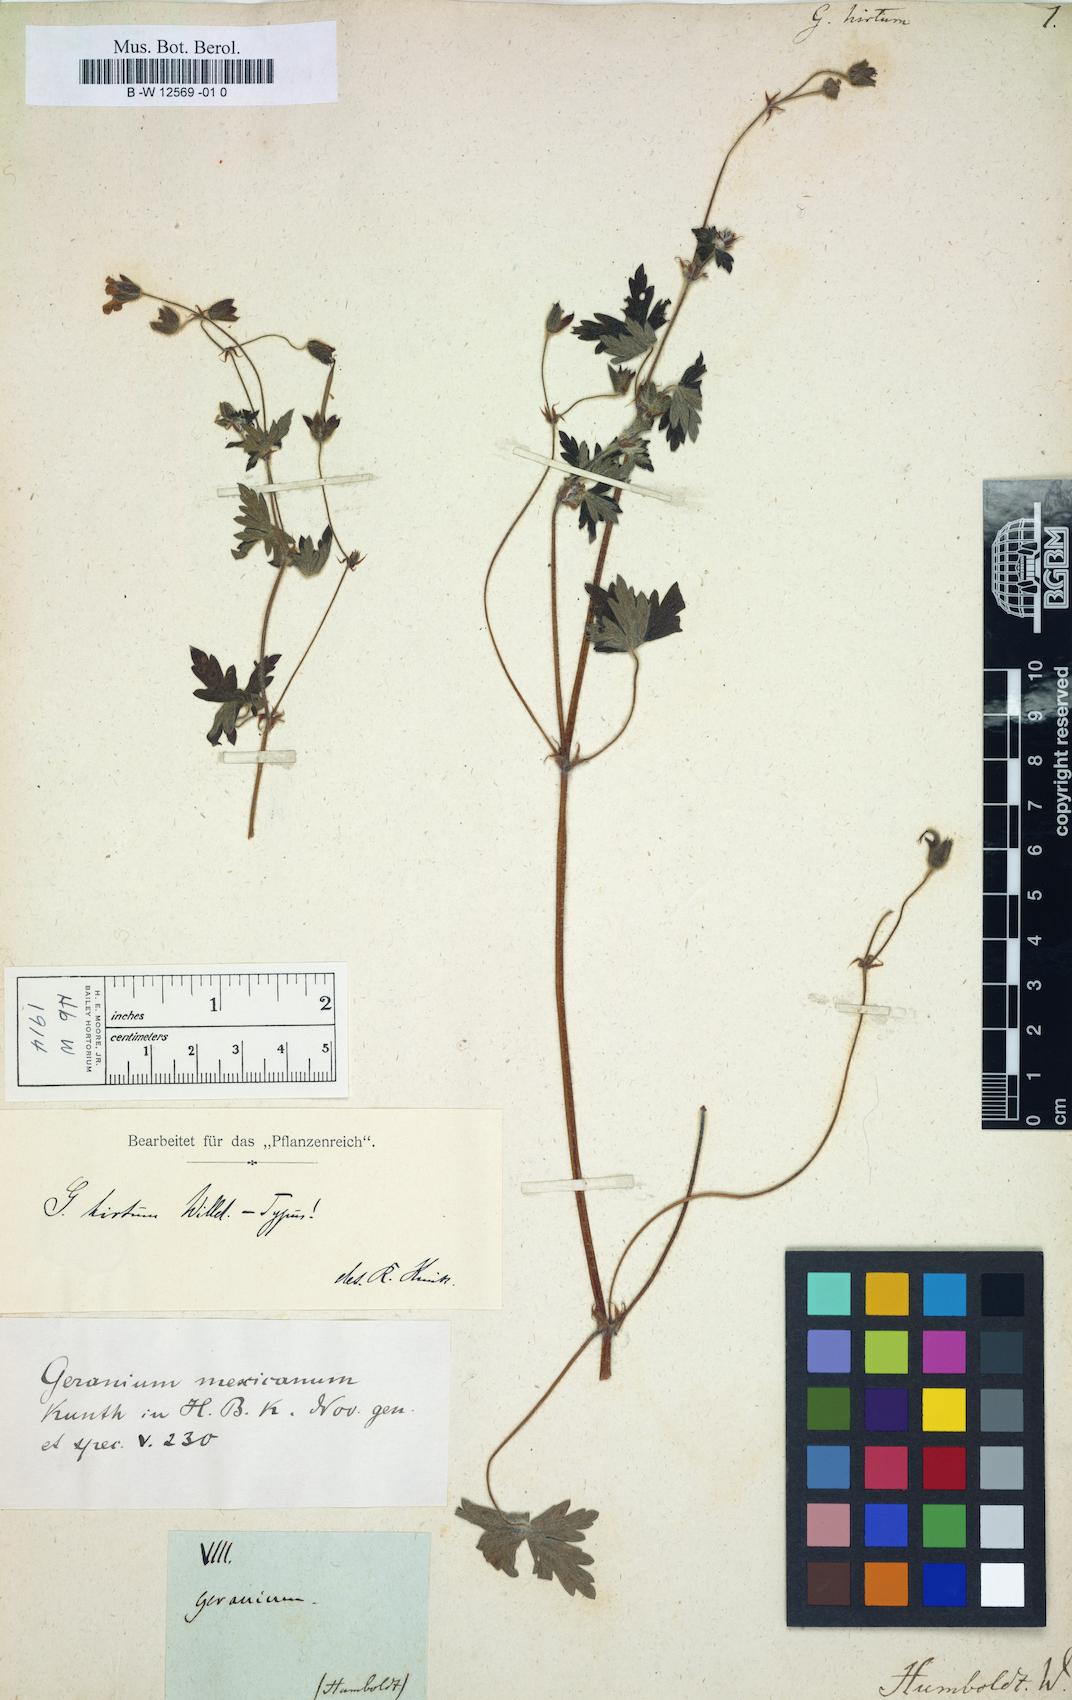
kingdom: Plantae
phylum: Tracheophyta
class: Magnoliopsida
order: Geraniales
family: Geraniaceae
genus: Geranium
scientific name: Geranium mexicanum
